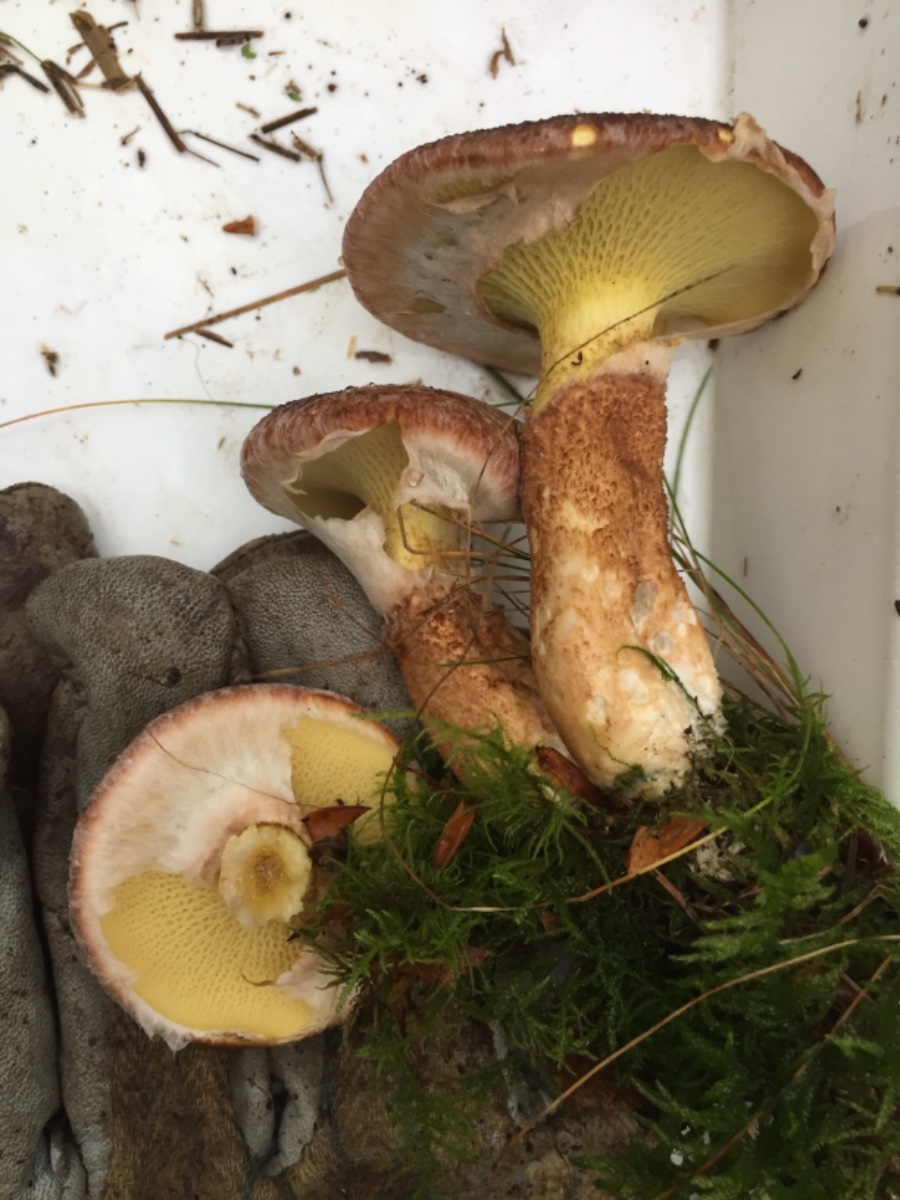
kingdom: Fungi
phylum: Basidiomycota
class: Agaricomycetes
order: Boletales
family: Suillaceae
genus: Suillus
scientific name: Suillus cavipes
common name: hulstokket slimrørhat
